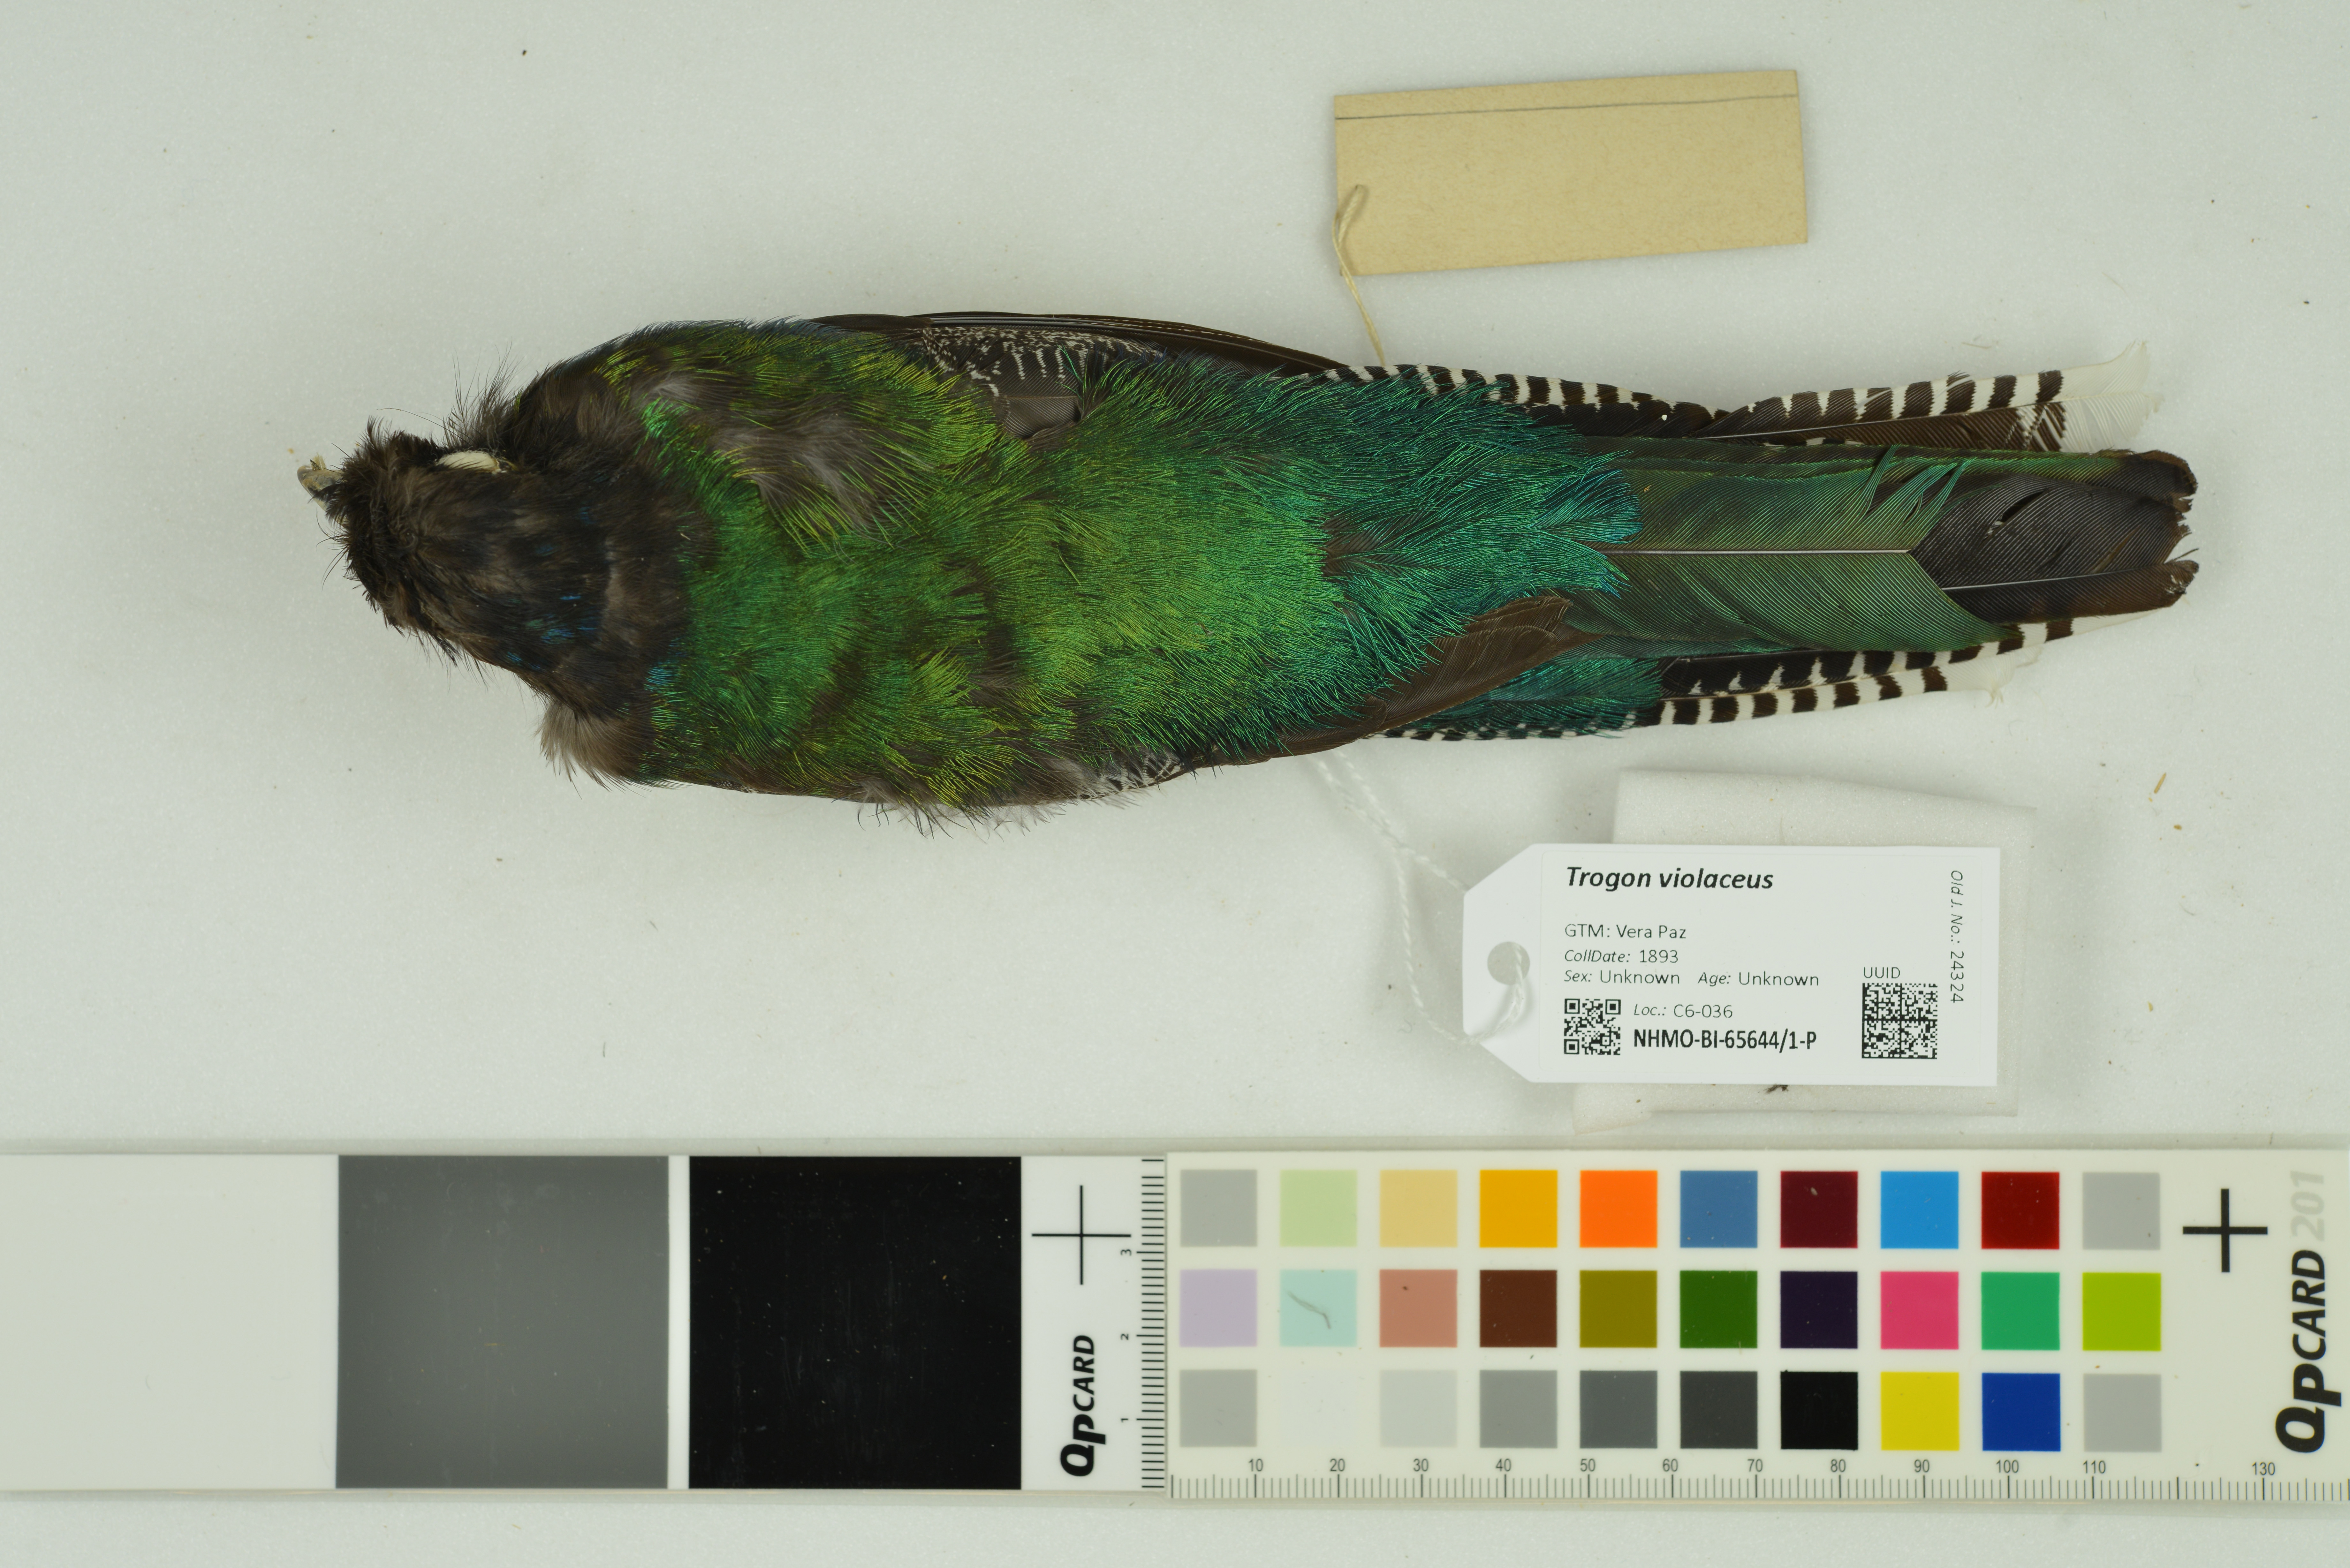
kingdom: Animalia
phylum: Chordata
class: Aves
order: Trogoniformes
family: Trogonidae
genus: Trogon
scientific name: Trogon violaceus
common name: Guianan trogon
